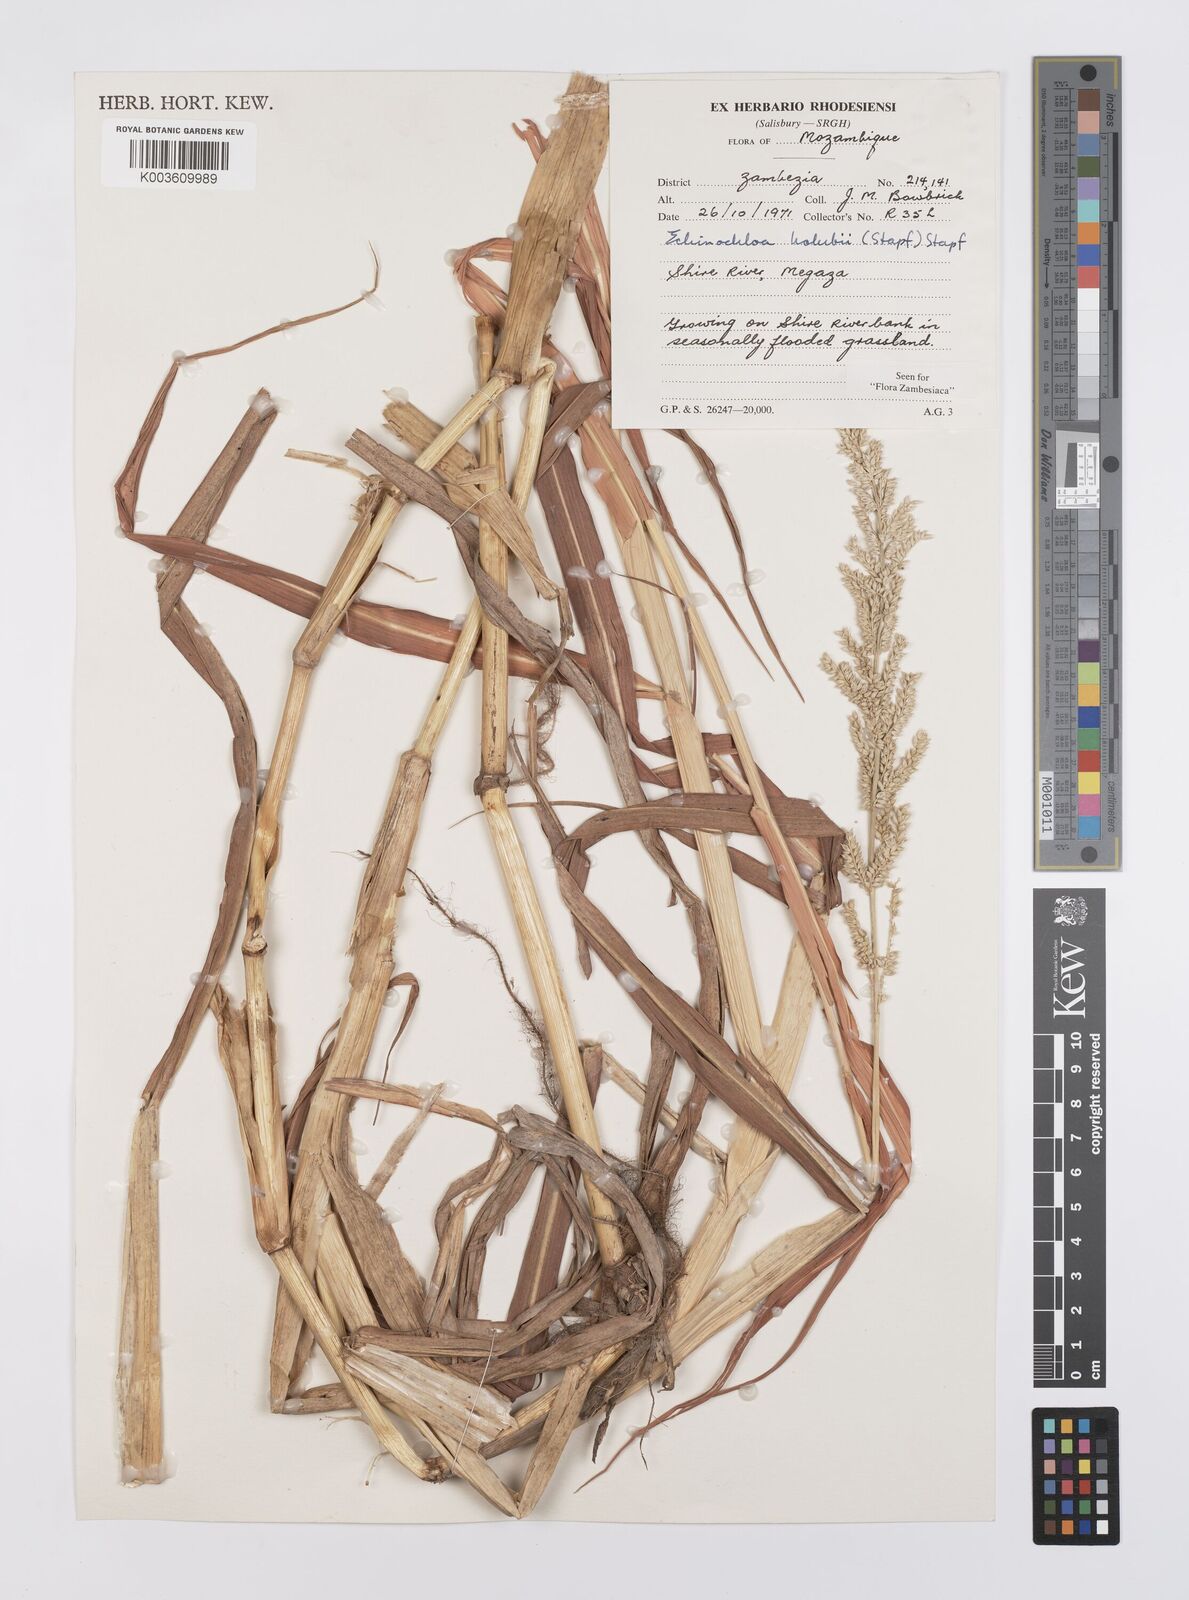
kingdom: Plantae
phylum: Tracheophyta
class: Liliopsida
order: Poales
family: Poaceae
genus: Echinochloa
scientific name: Echinochloa pyramidalis
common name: Antelope grass
